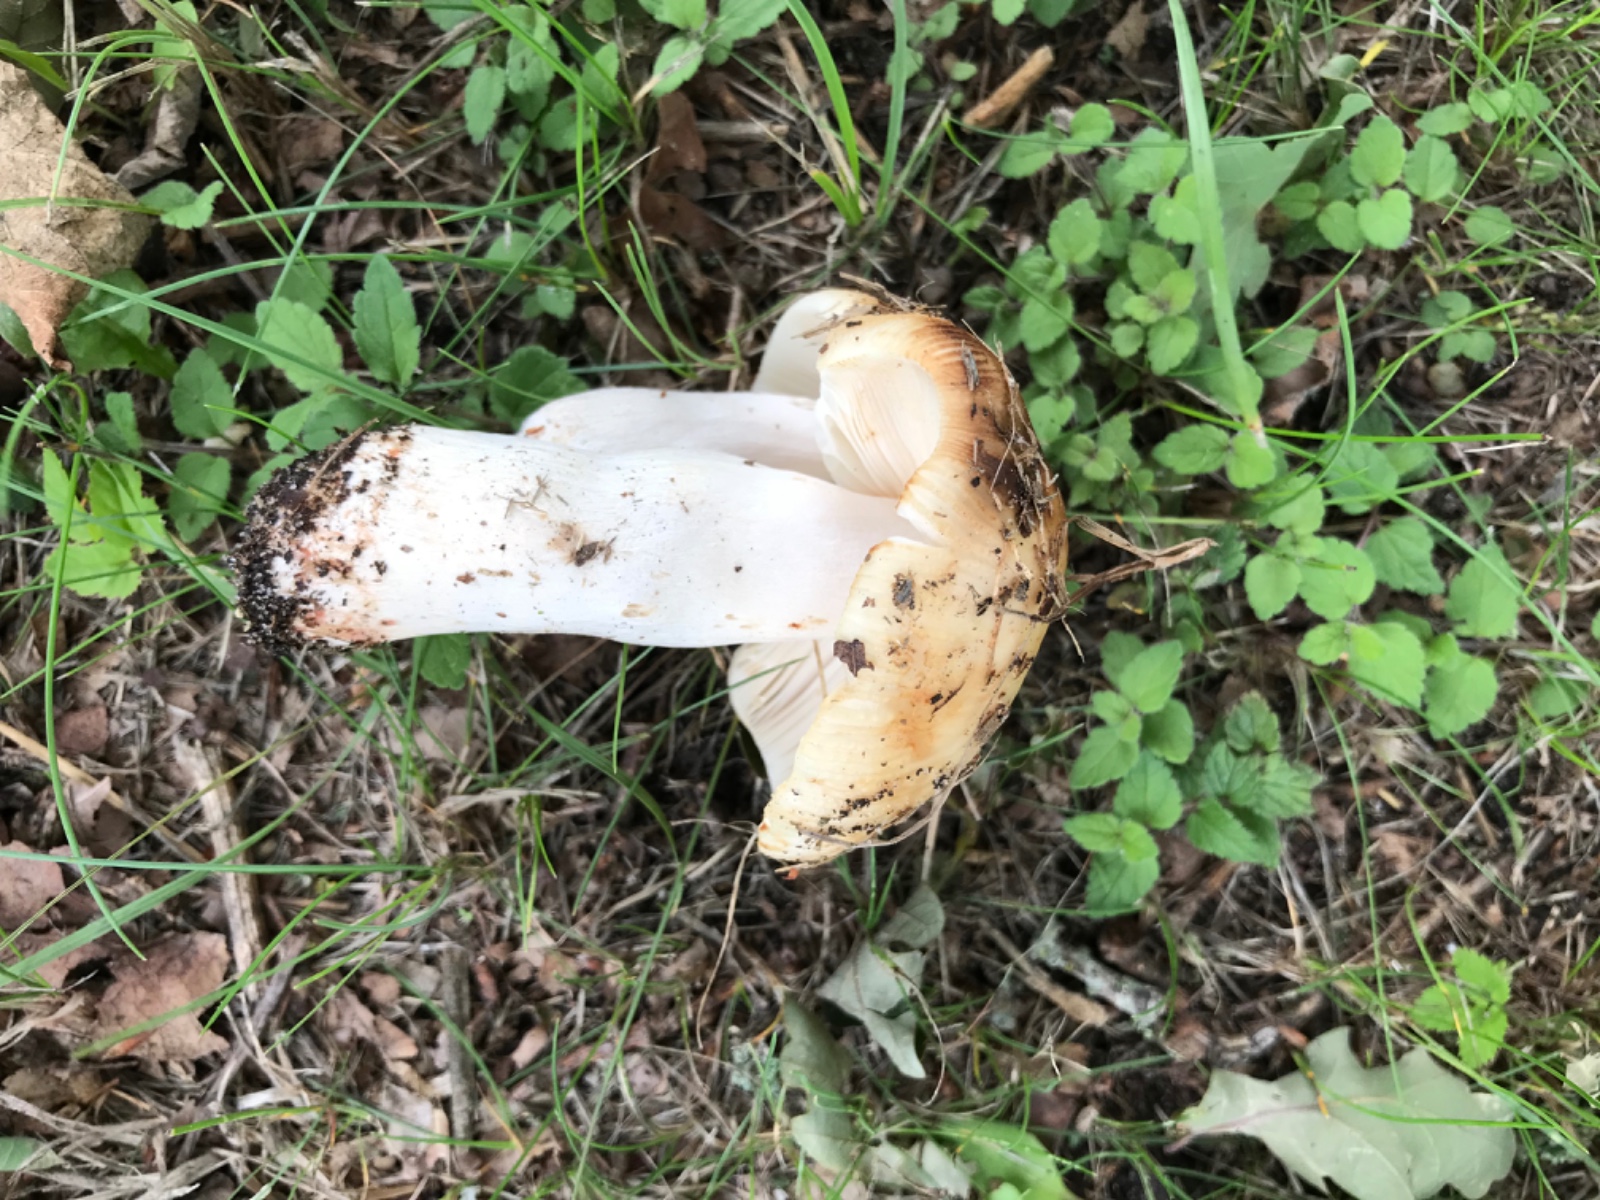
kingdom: Fungi
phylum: Basidiomycota
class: Agaricomycetes
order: Russulales
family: Russulaceae
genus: Russula
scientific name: Russula recondita
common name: mild kam-skørhat
